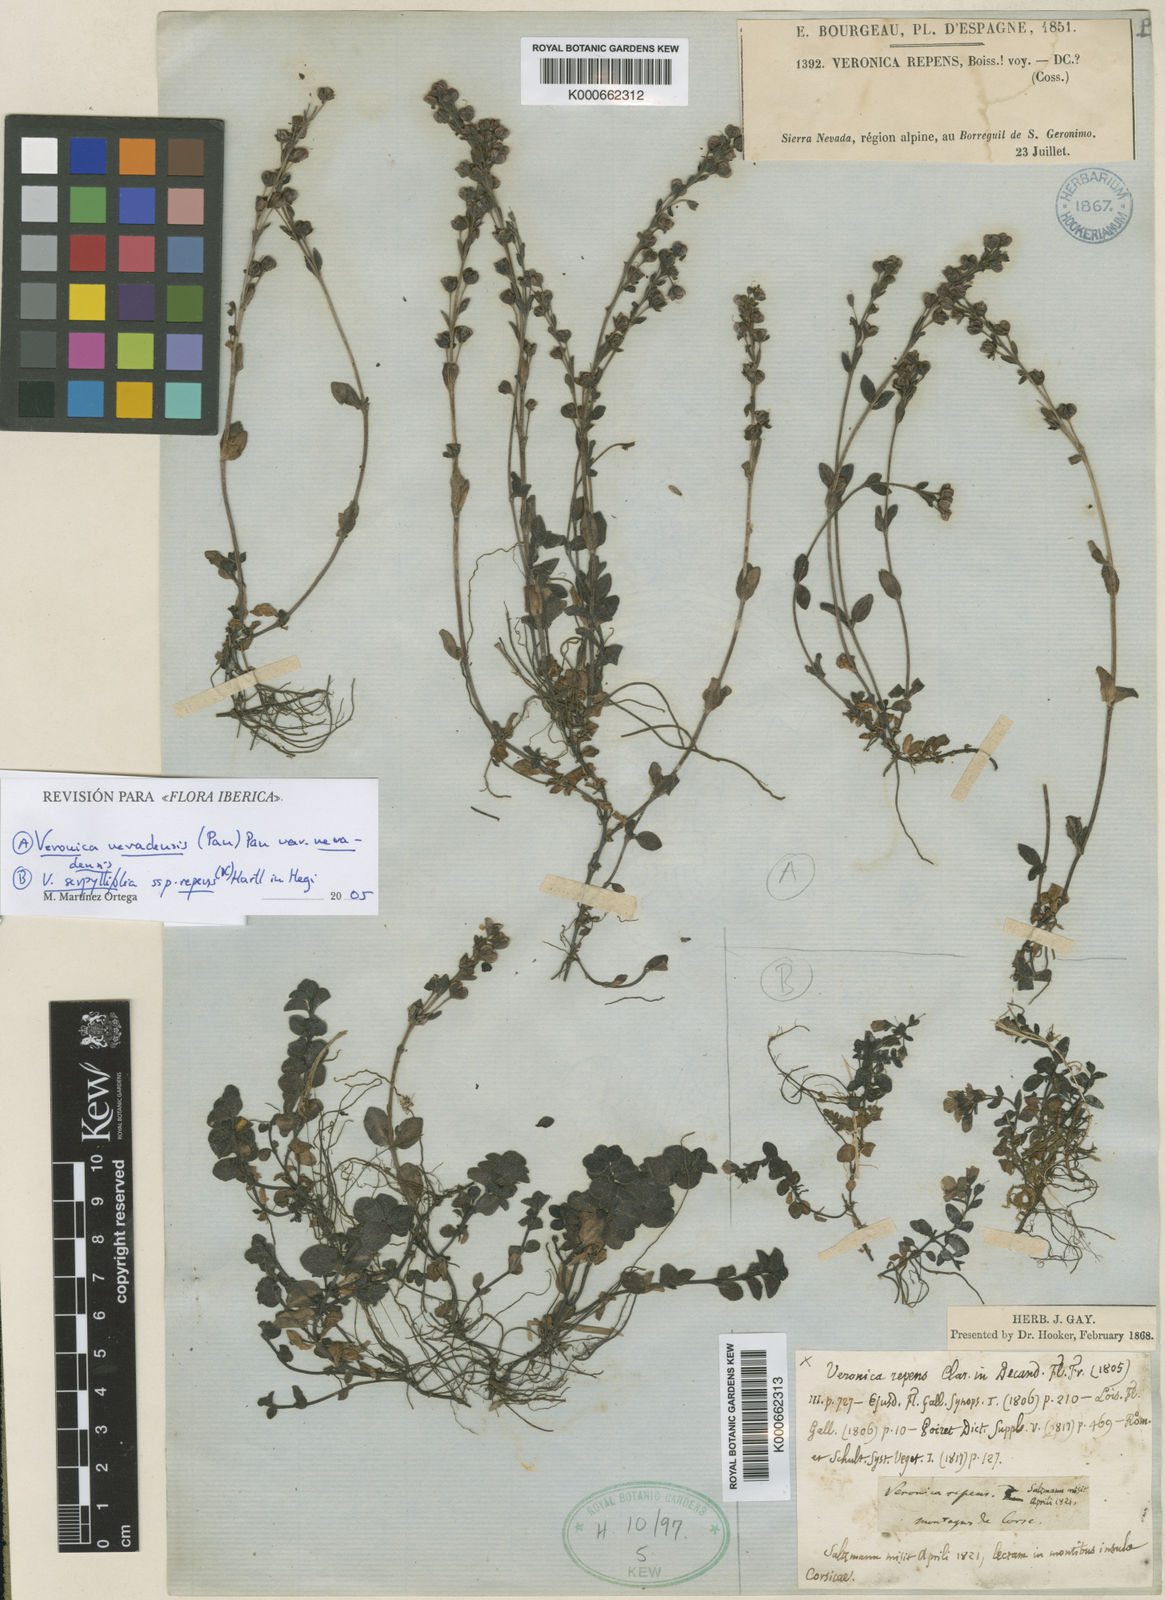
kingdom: Plantae
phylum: Tracheophyta
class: Magnoliopsida
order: Lamiales
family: Plantaginaceae
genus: Veronica
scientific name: Veronica nevadensis
